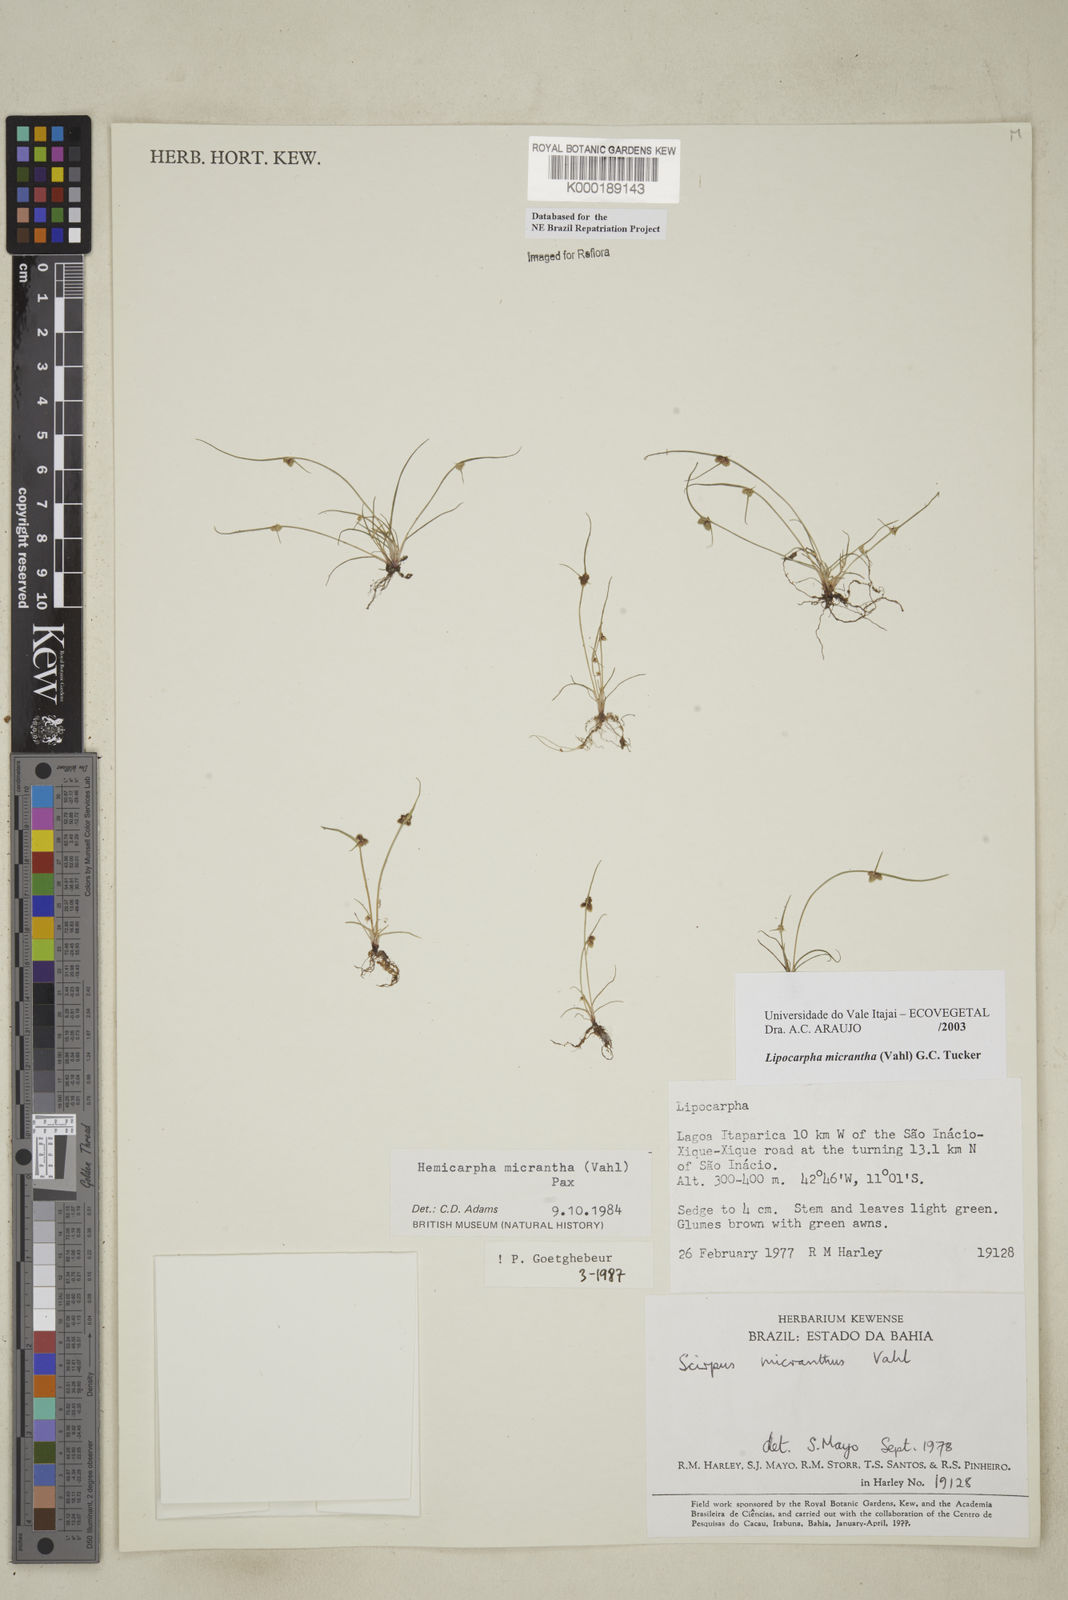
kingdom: Plantae
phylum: Tracheophyta
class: Liliopsida
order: Poales
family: Cyperaceae
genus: Cyperus
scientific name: Cyperus subsquarrosus
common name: Dwarf bulrush
